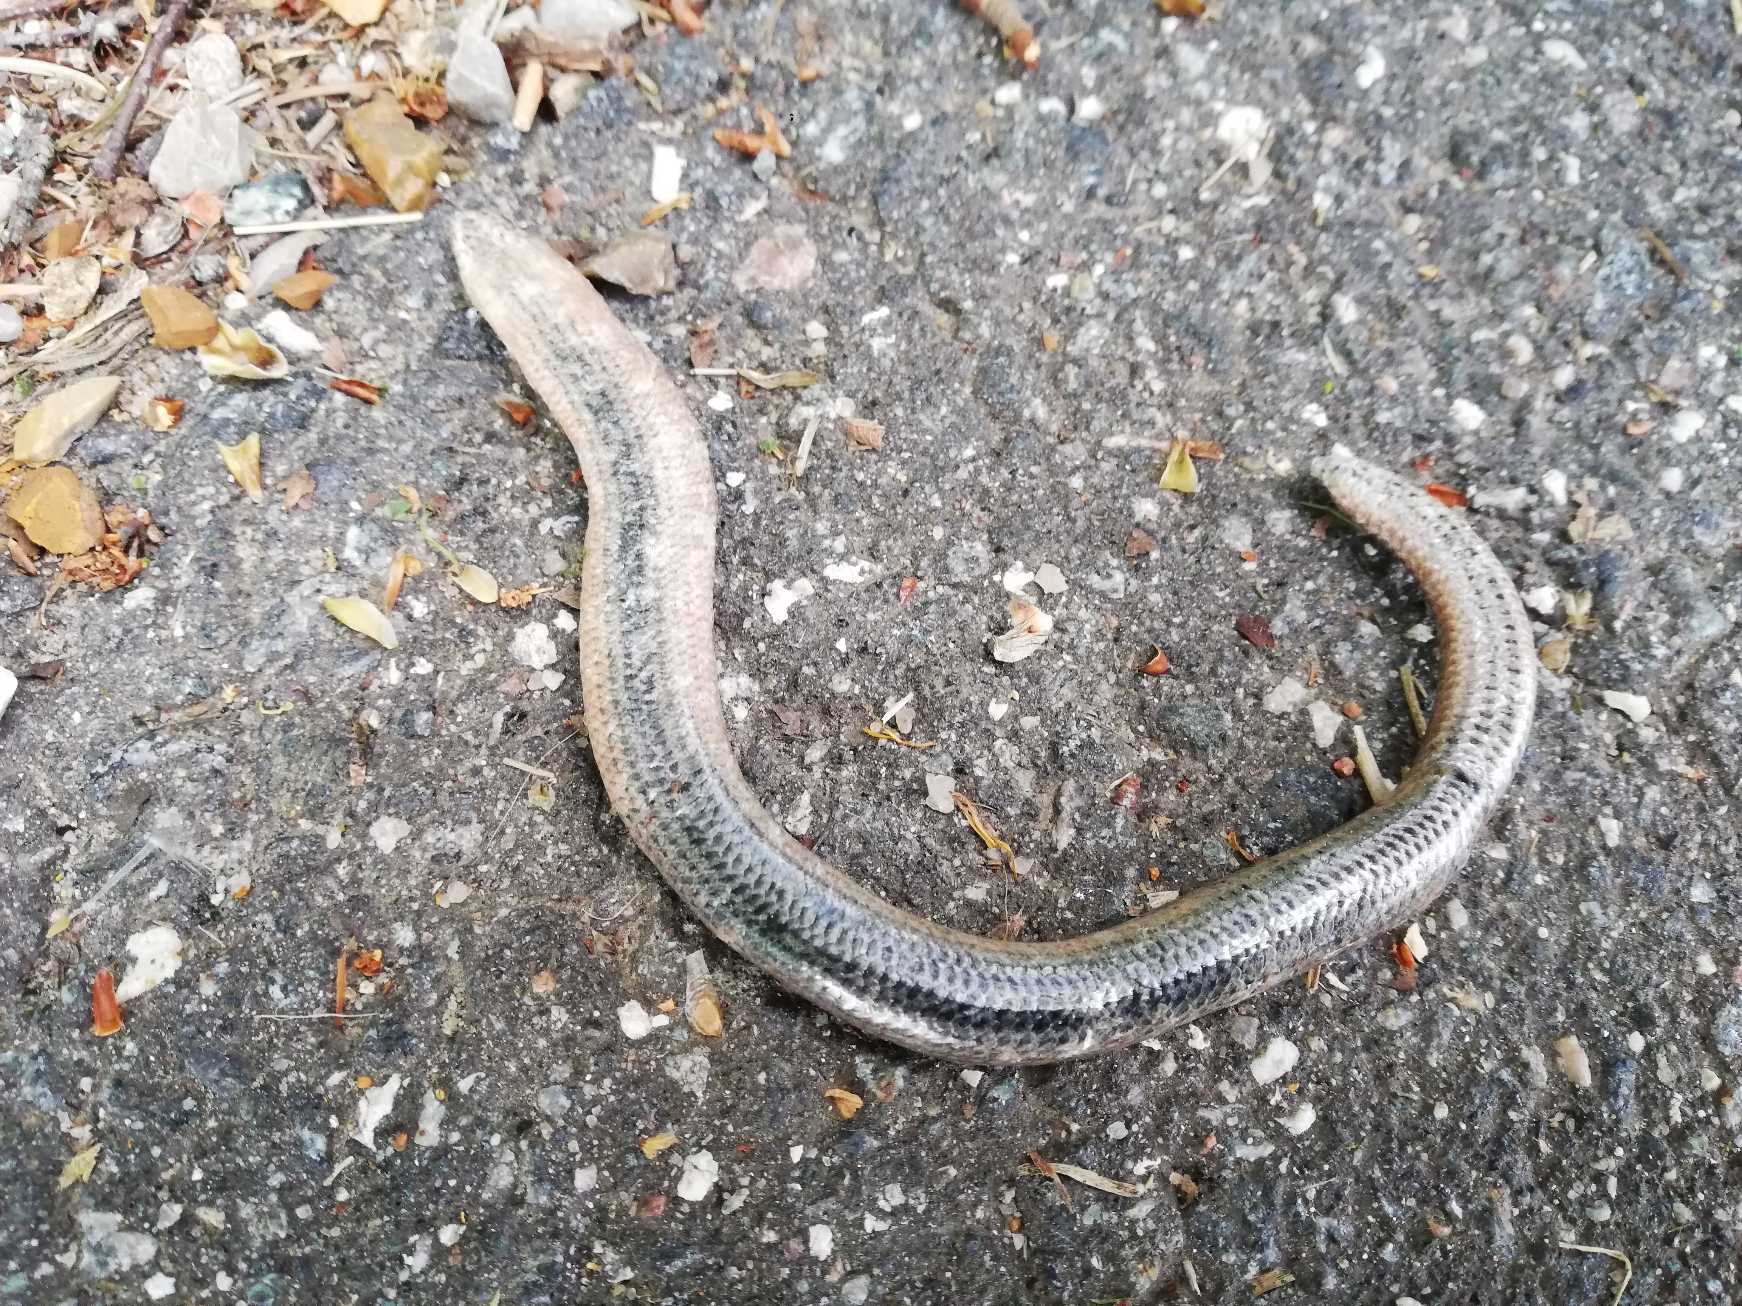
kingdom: Animalia
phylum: Chordata
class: Squamata
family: Anguidae
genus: Anguis
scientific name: Anguis fragilis
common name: Stålorm
